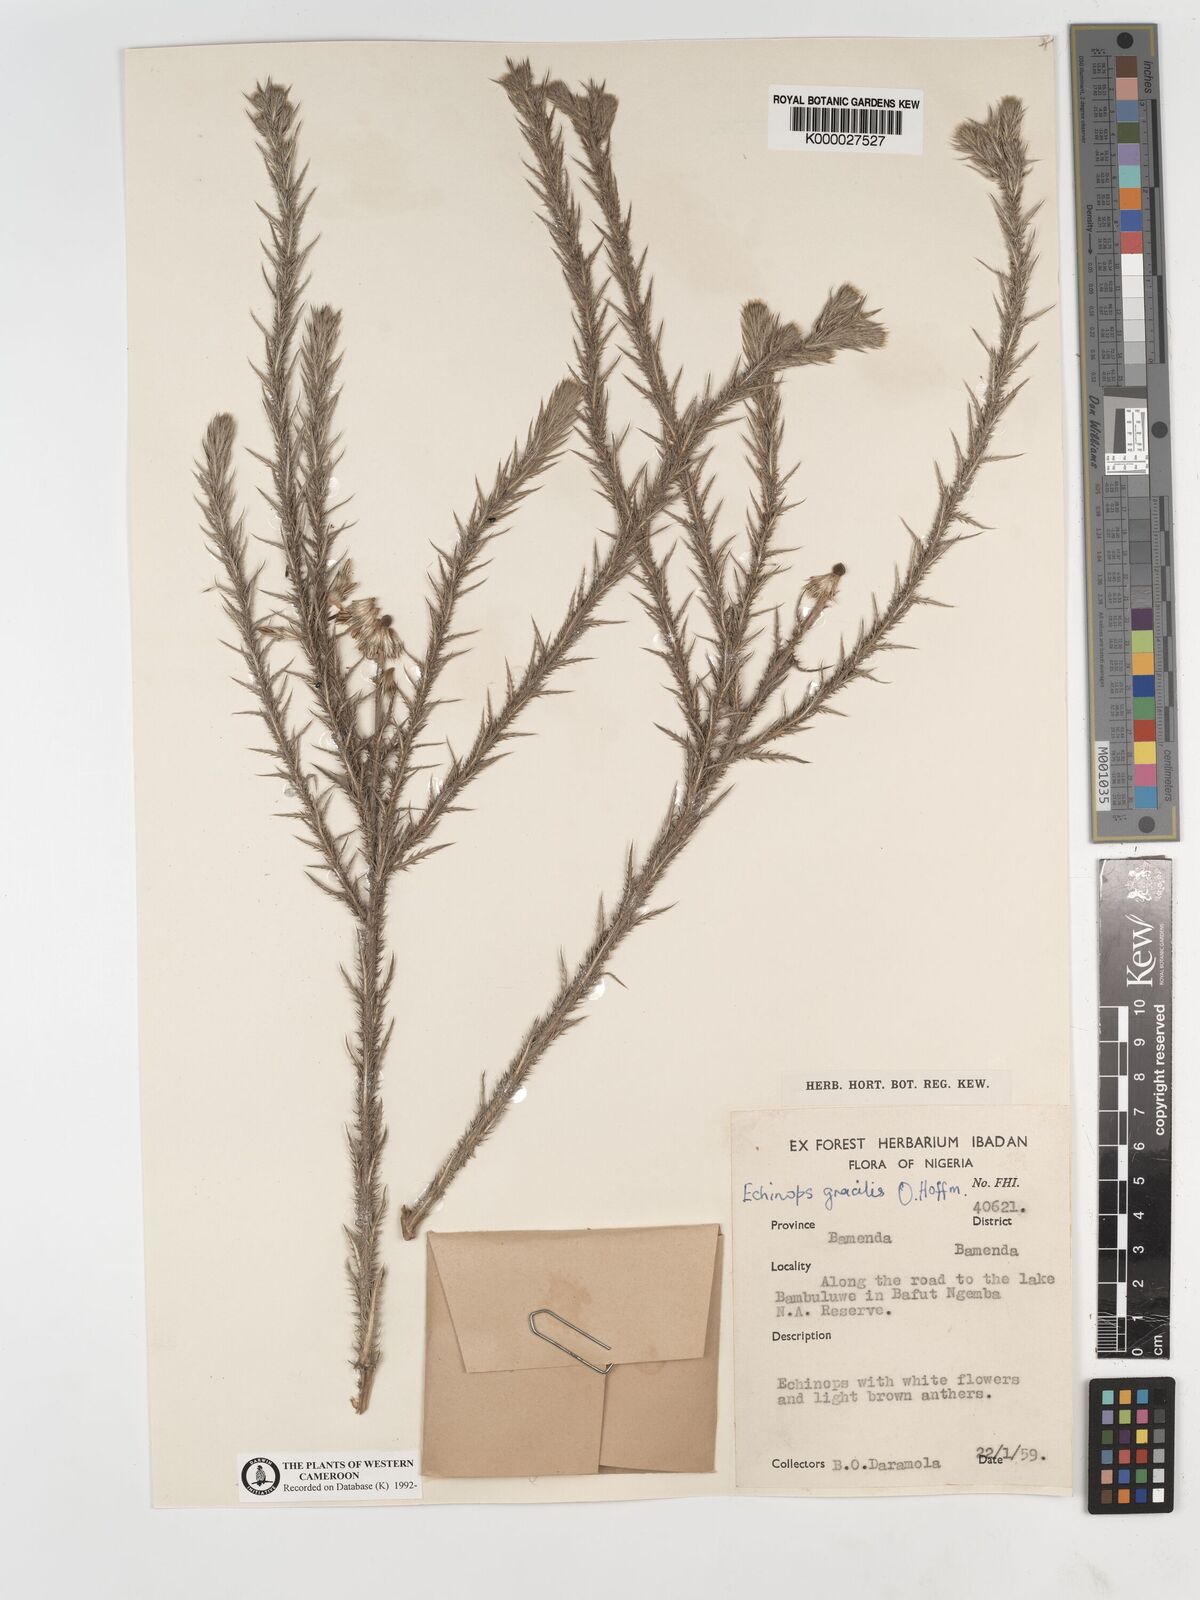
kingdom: Plantae
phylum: Tracheophyta
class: Magnoliopsida
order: Asterales
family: Asteraceae
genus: Echinops
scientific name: Echinops gracilis
